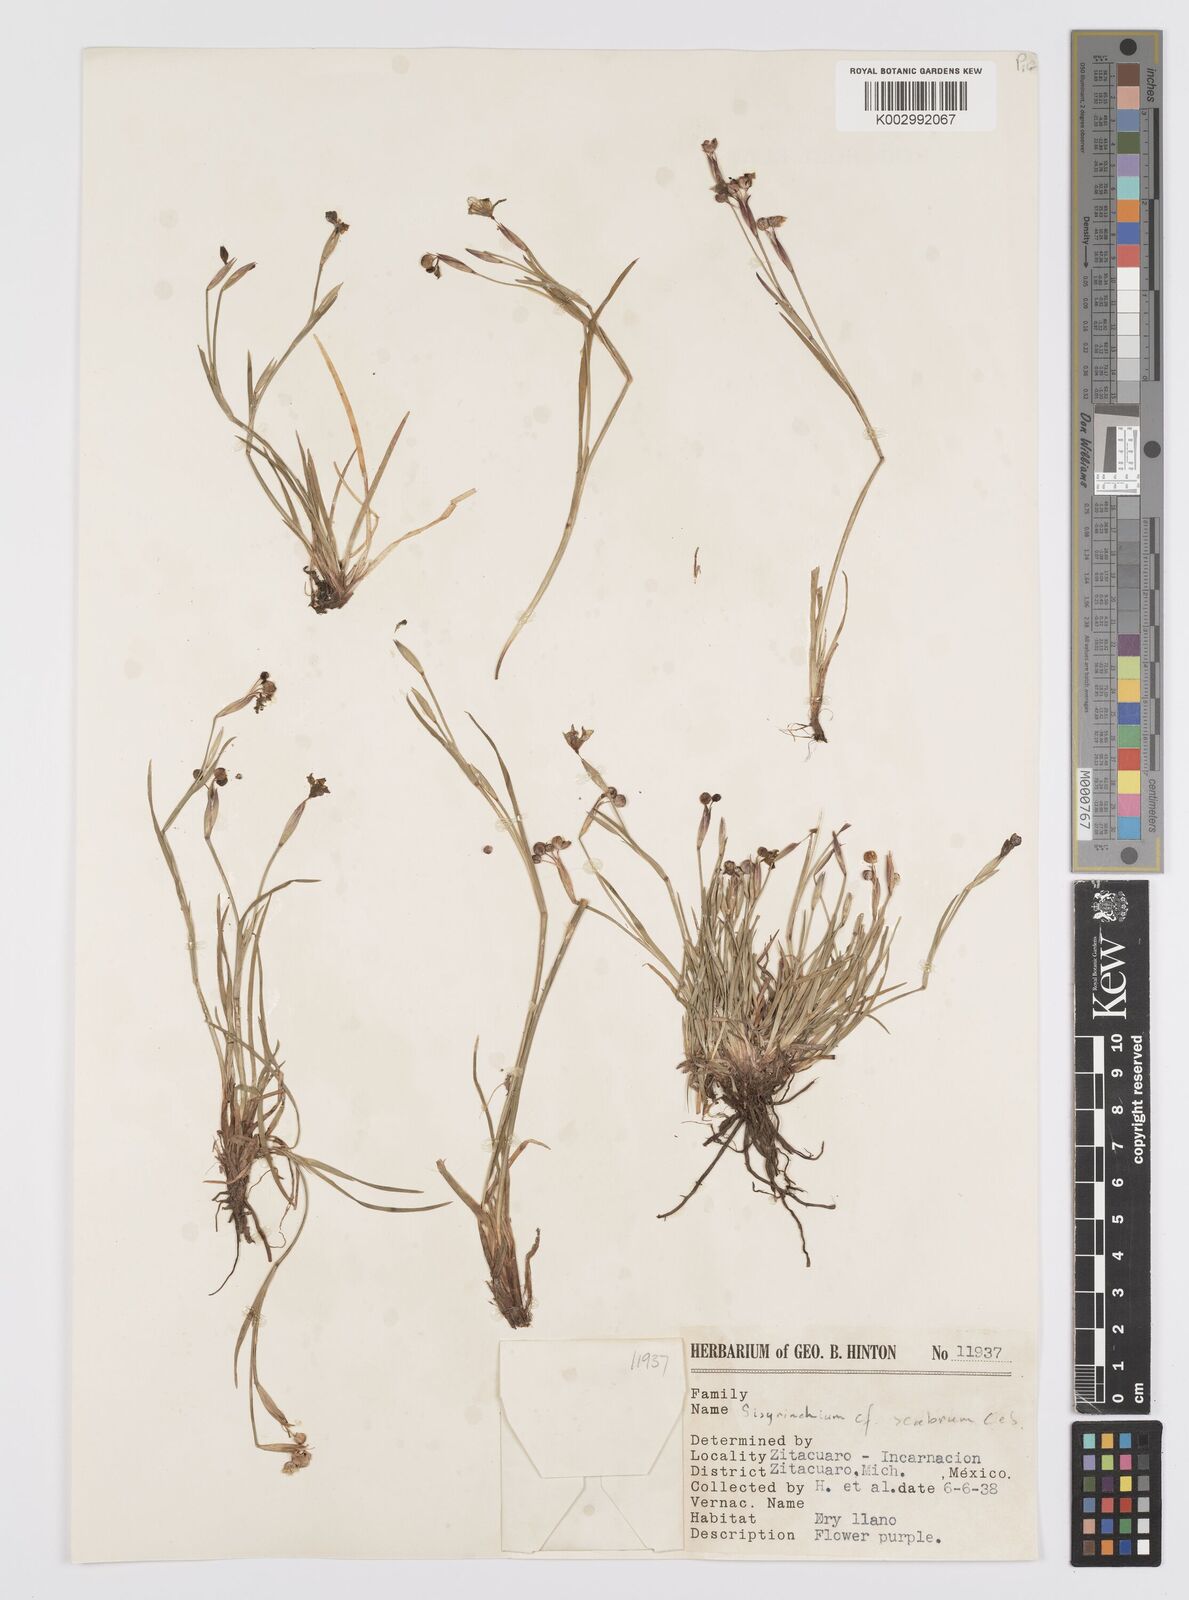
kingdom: Plantae
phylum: Tracheophyta
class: Liliopsida
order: Asparagales
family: Iridaceae
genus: Sisyrinchium
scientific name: Sisyrinchium scabrum
